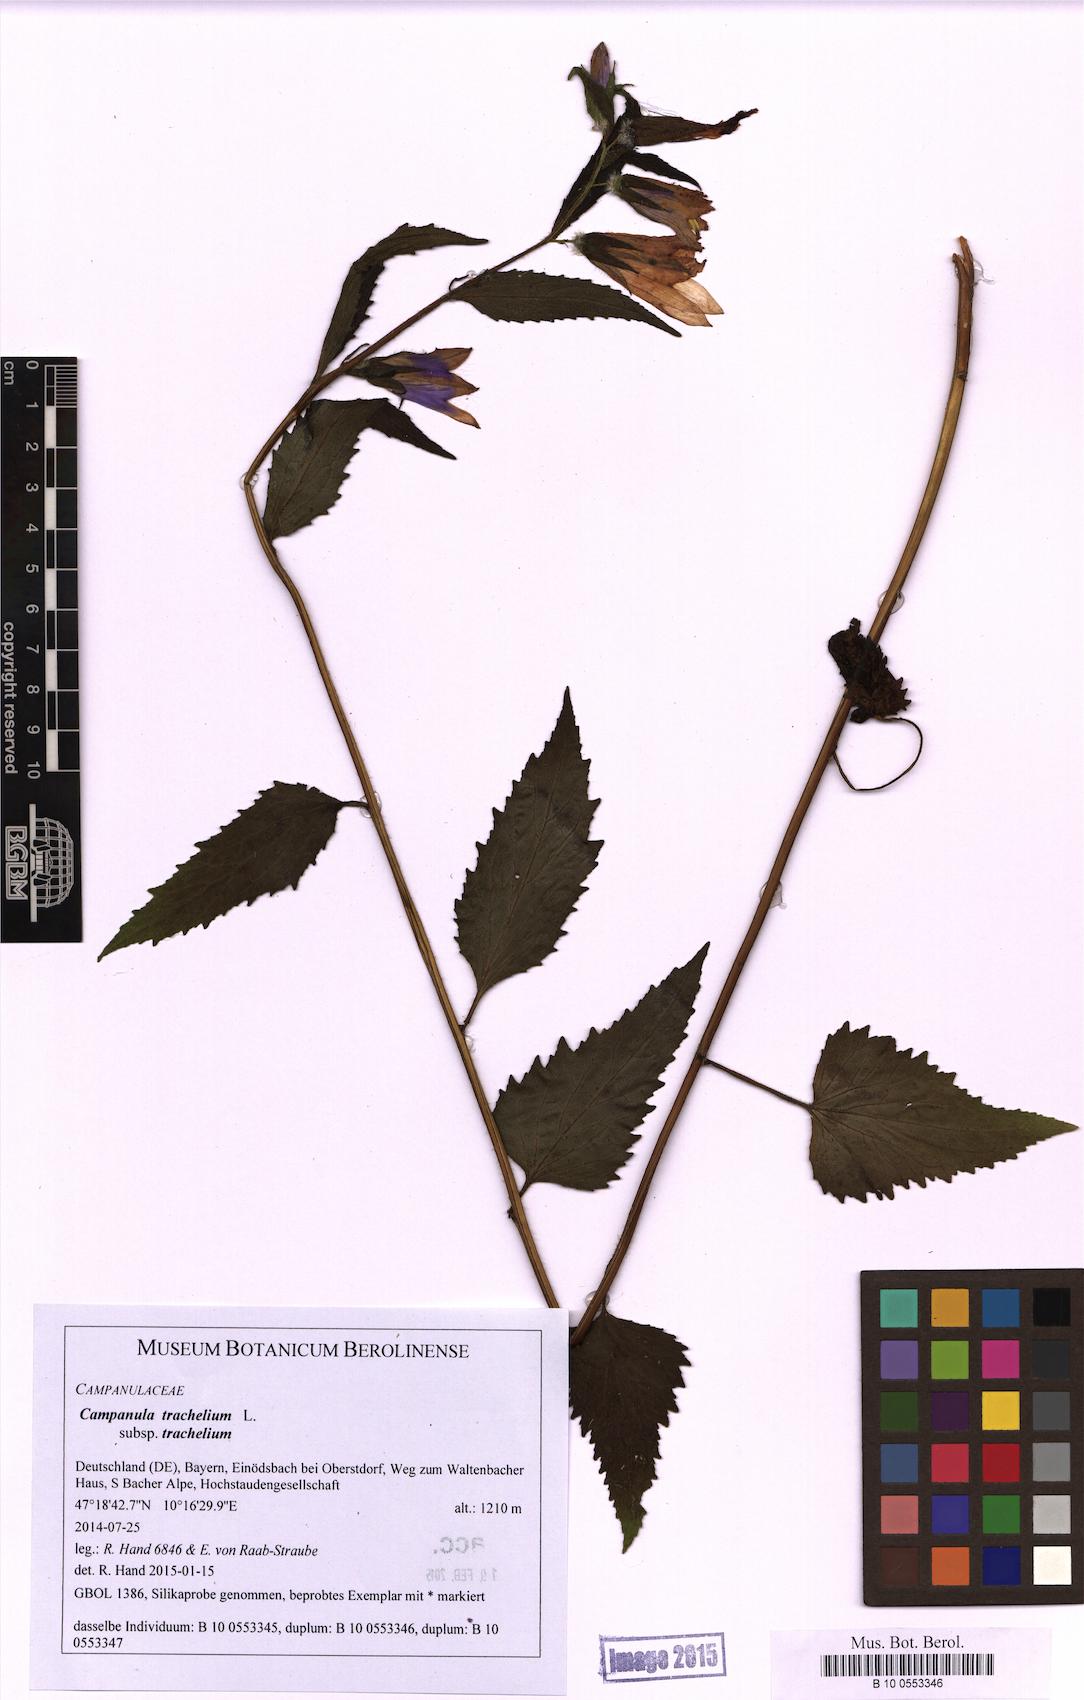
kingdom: Plantae
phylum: Tracheophyta
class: Magnoliopsida
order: Asterales
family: Campanulaceae
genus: Campanula
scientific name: Campanula trachelium
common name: Nettle-leaved bellflower
